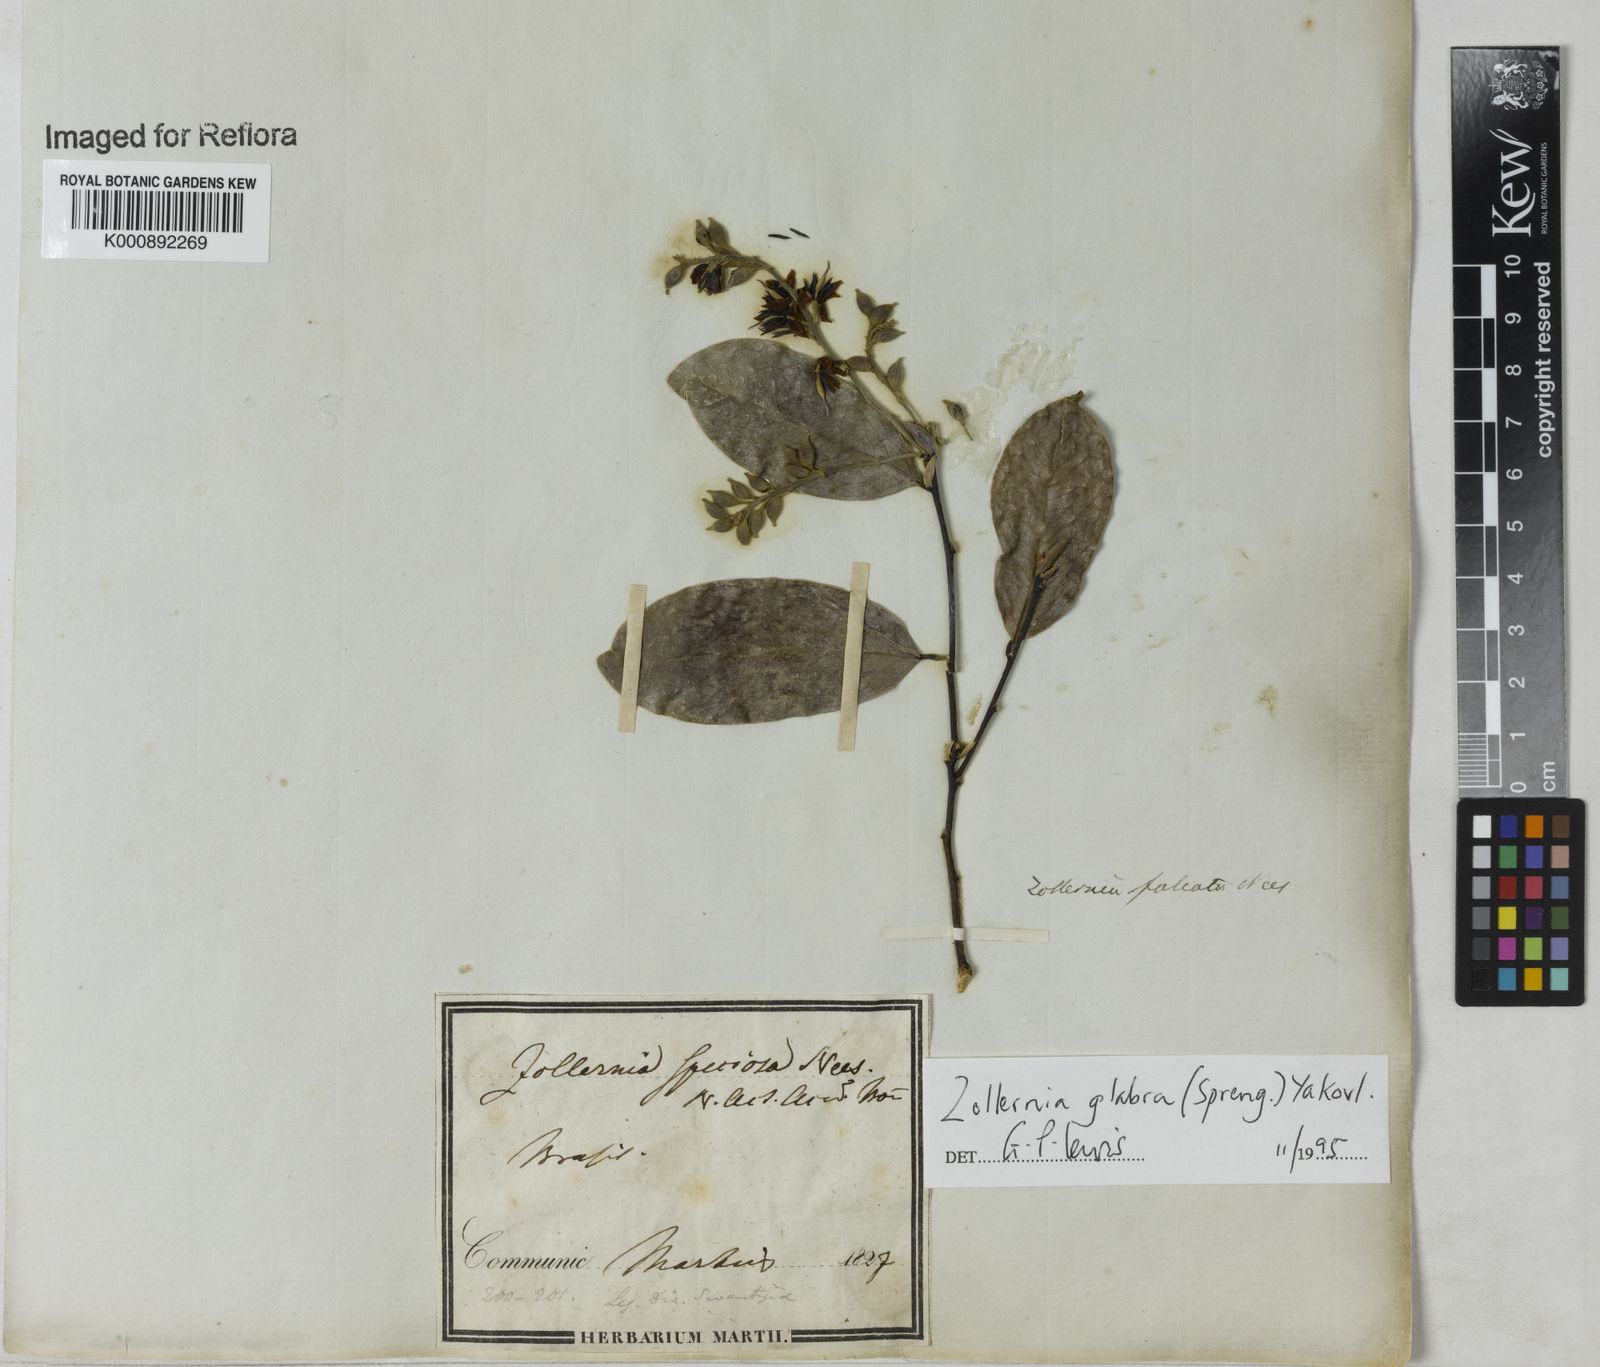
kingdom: Plantae
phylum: Tracheophyta
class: Magnoliopsida
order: Fabales
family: Fabaceae
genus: Zollernia
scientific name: Zollernia glabra
